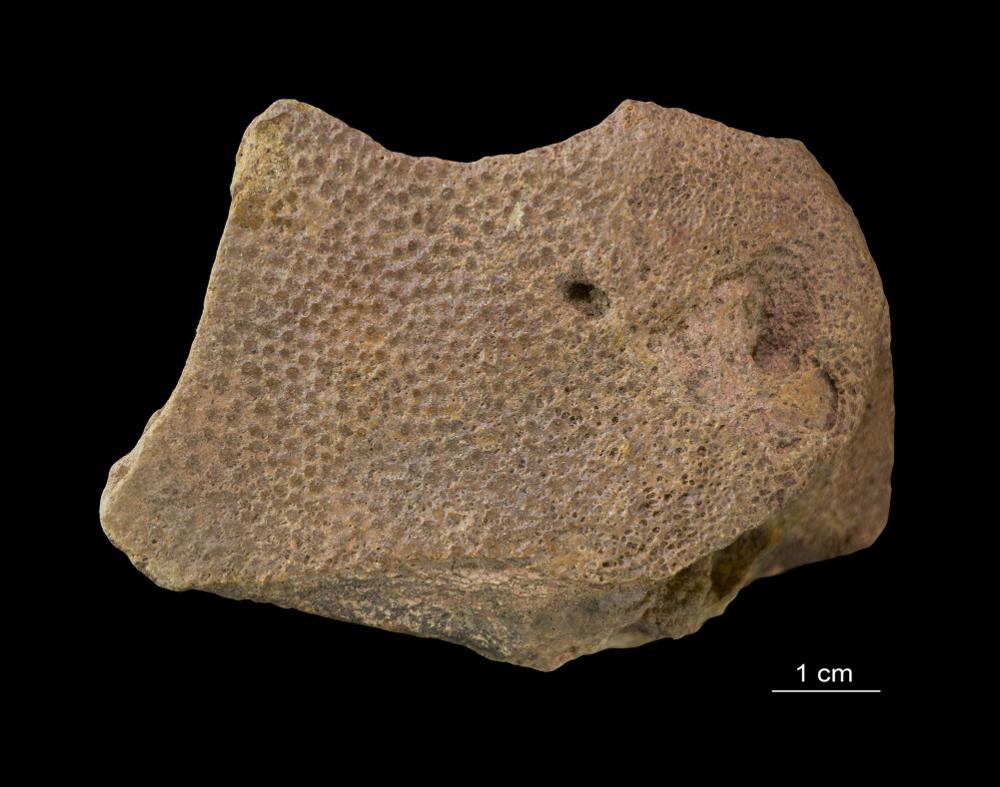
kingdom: Animalia
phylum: Chordata
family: Asterolepididae
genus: Asterolepis
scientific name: Asterolepis ornata
